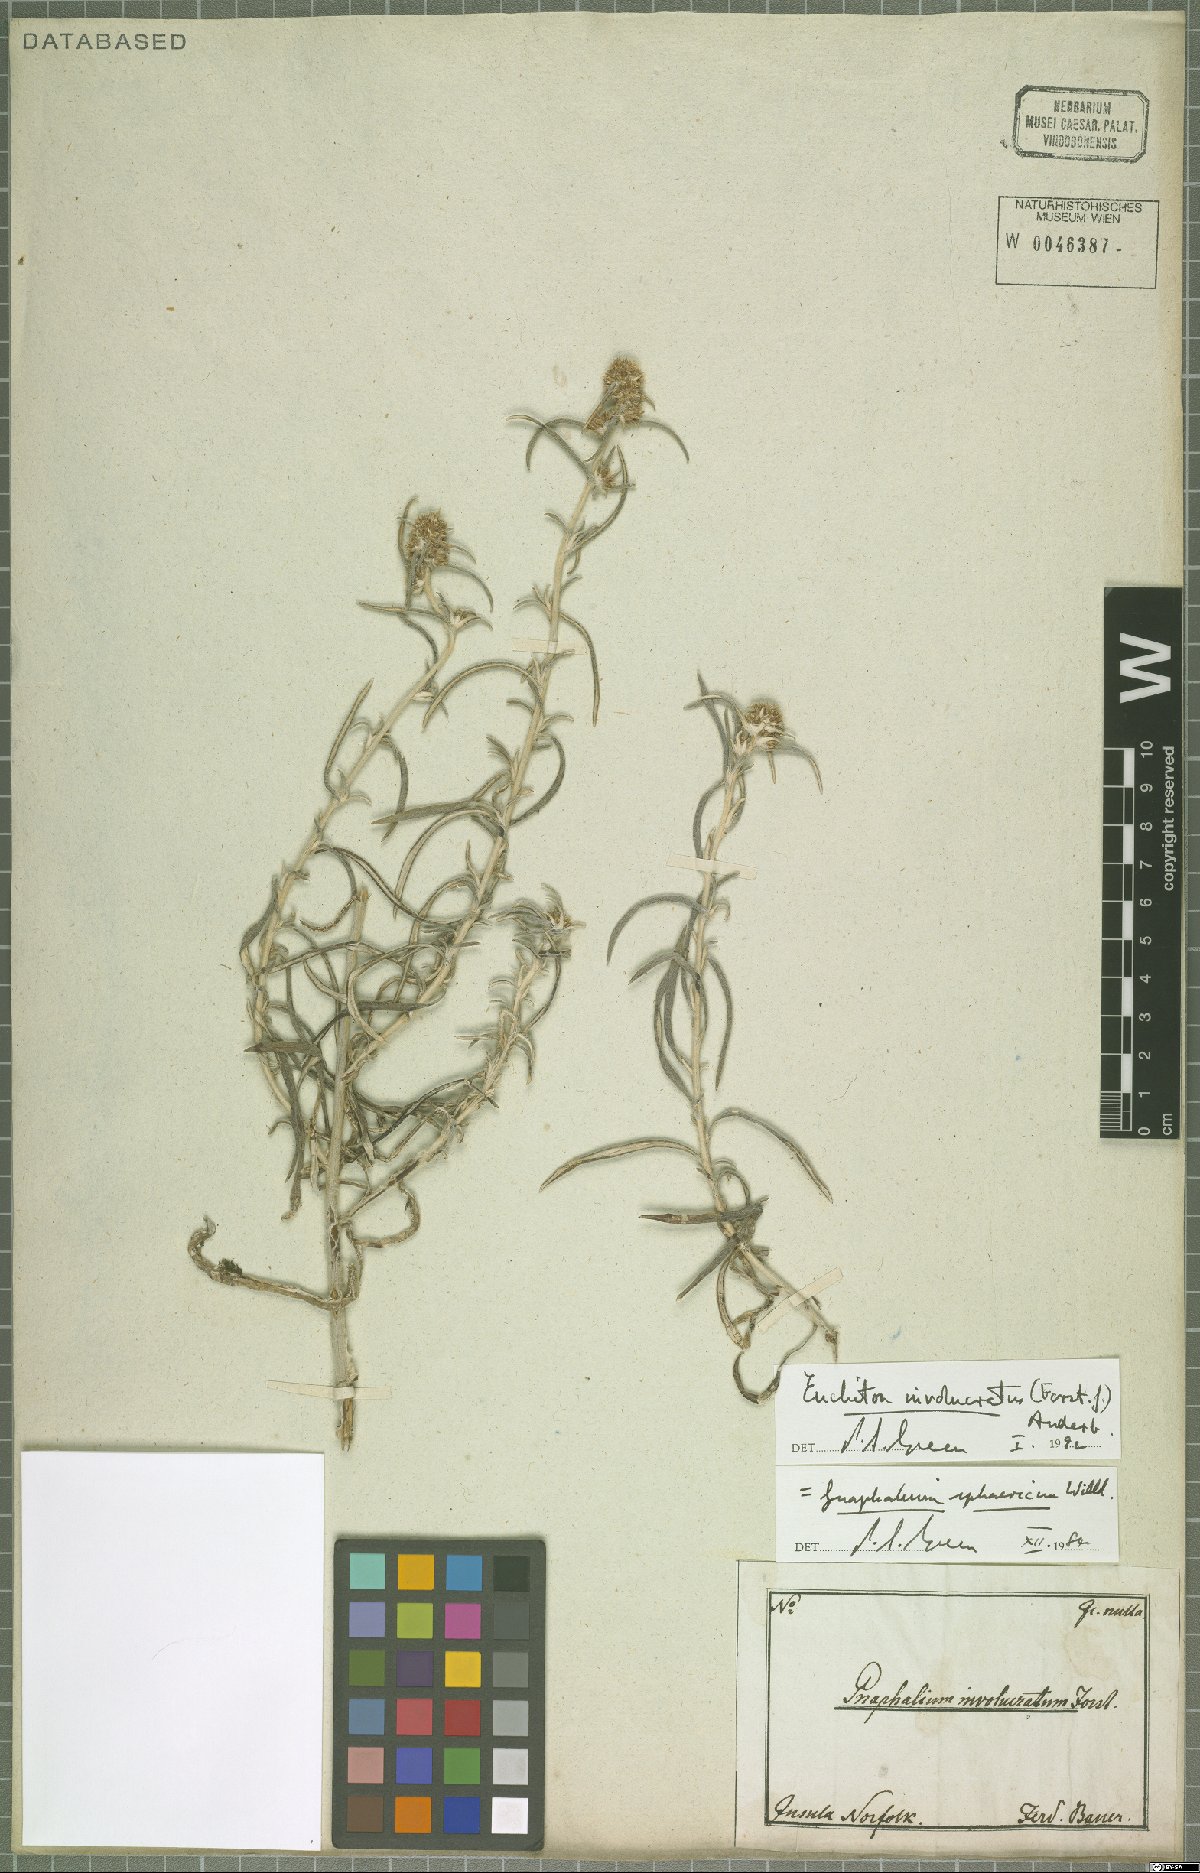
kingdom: Plantae
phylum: Tracheophyta
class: Magnoliopsida
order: Asterales
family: Asteraceae
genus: Euchiton
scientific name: Euchiton involucratus
